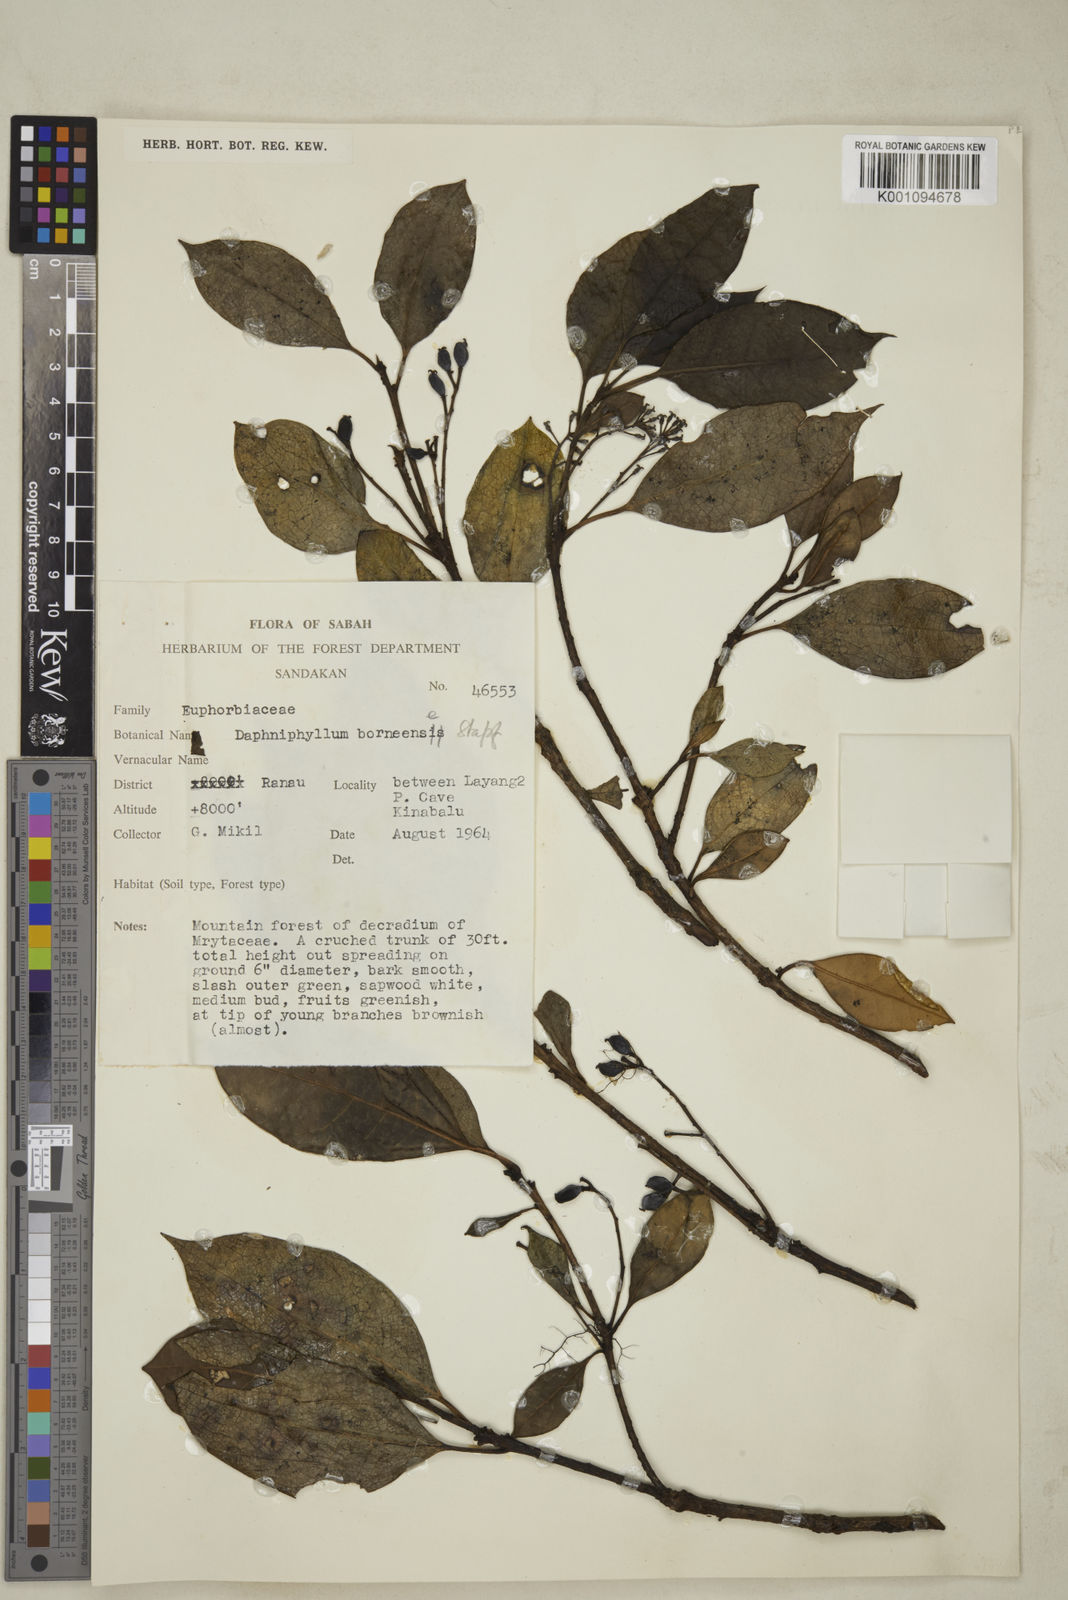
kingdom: Plantae
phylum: Tracheophyta
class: Magnoliopsida
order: Saxifragales
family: Daphniphyllaceae
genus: Daphniphyllum
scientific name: Daphniphyllum borneense
